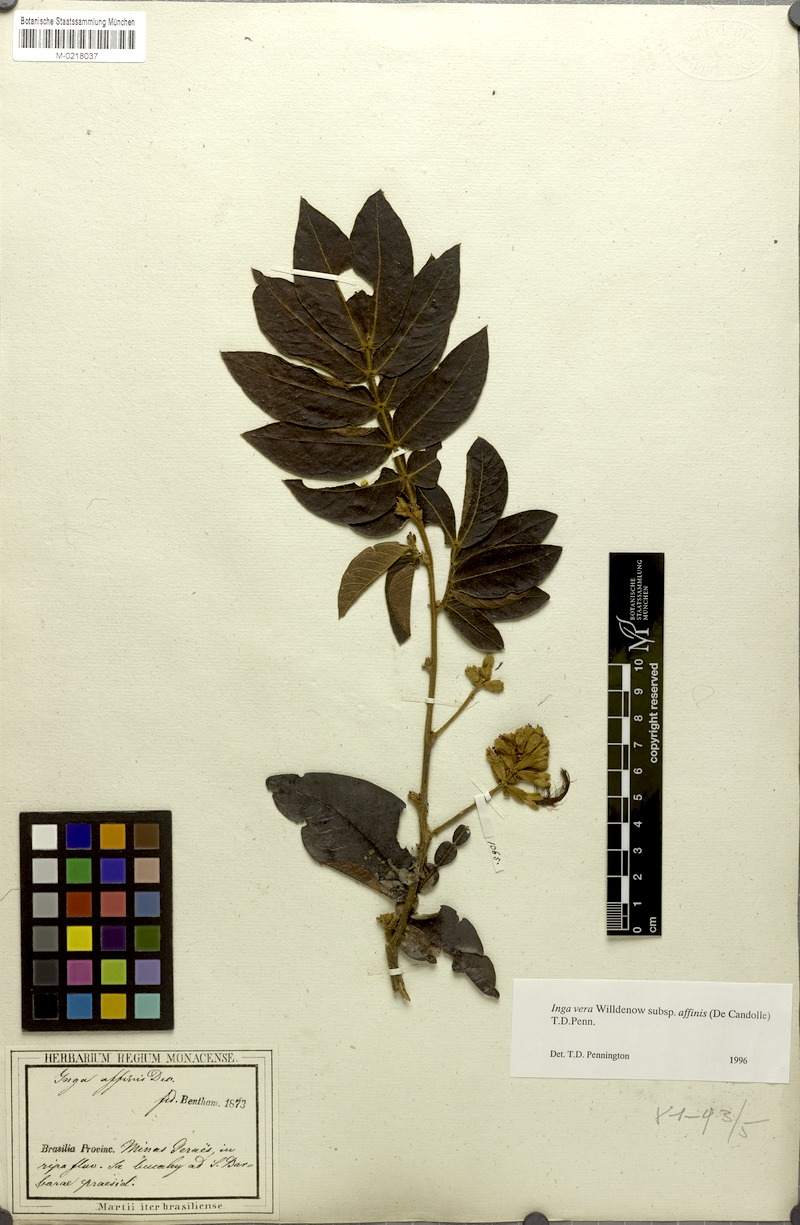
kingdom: Plantae
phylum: Tracheophyta
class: Magnoliopsida
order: Fabales
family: Fabaceae
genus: Inga
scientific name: Inga affinis
